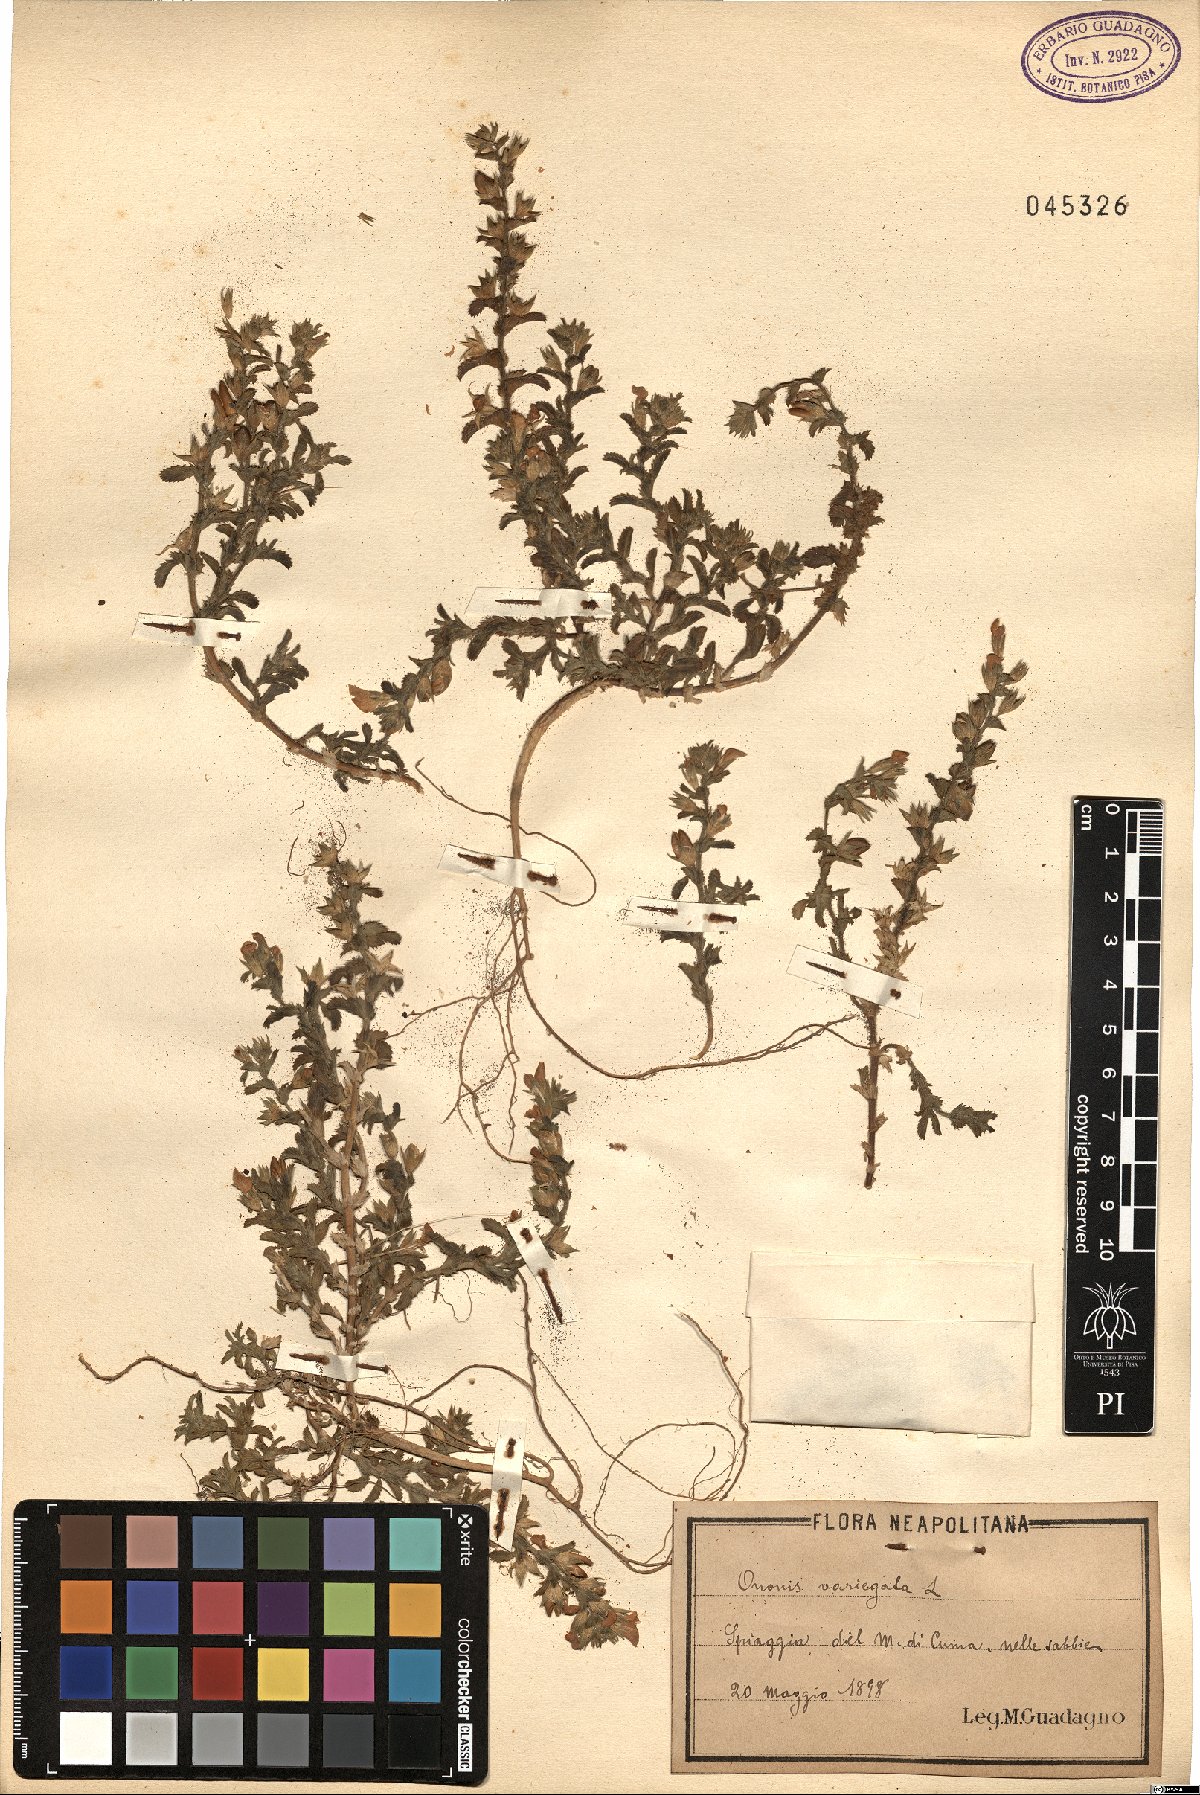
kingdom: Plantae
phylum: Tracheophyta
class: Magnoliopsida
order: Fabales
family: Fabaceae
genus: Ononis
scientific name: Ononis variegata
